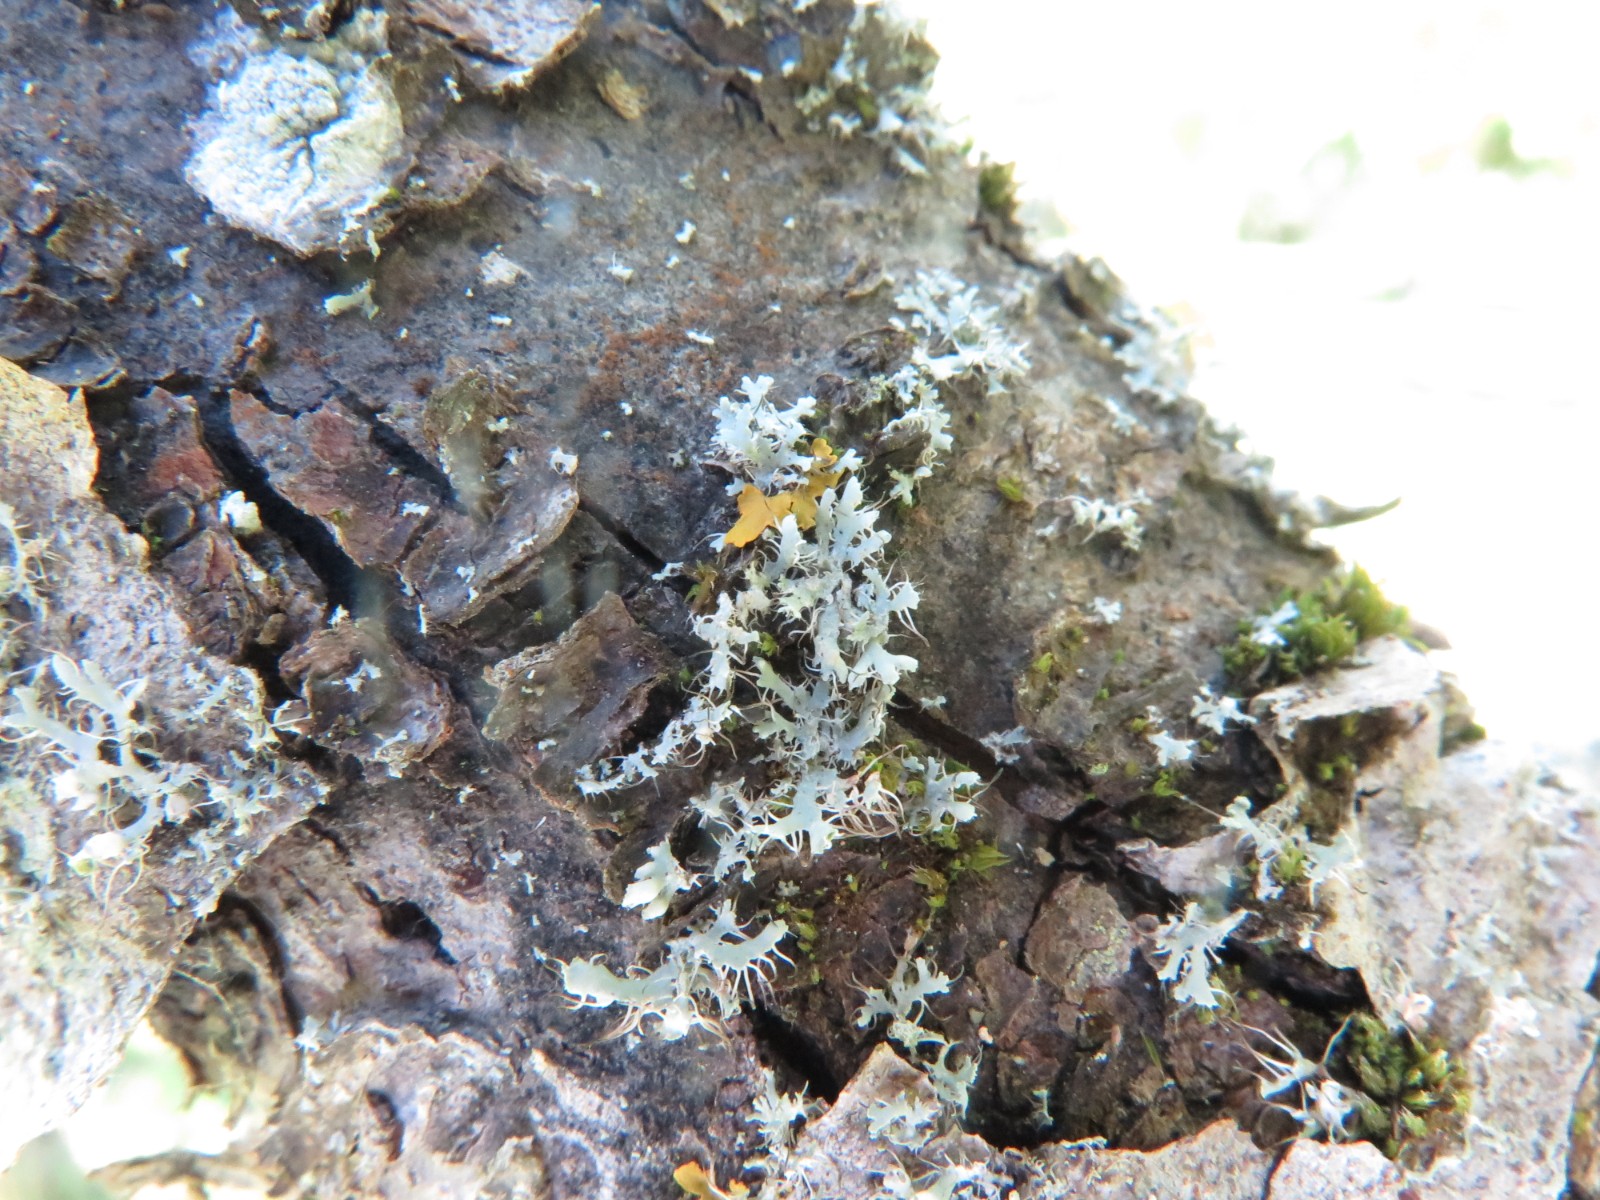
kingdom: Fungi
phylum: Ascomycota
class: Lecanoromycetes
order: Caliciales
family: Physciaceae
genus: Physcia
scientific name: Physcia tenella
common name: spæd rosetlav
